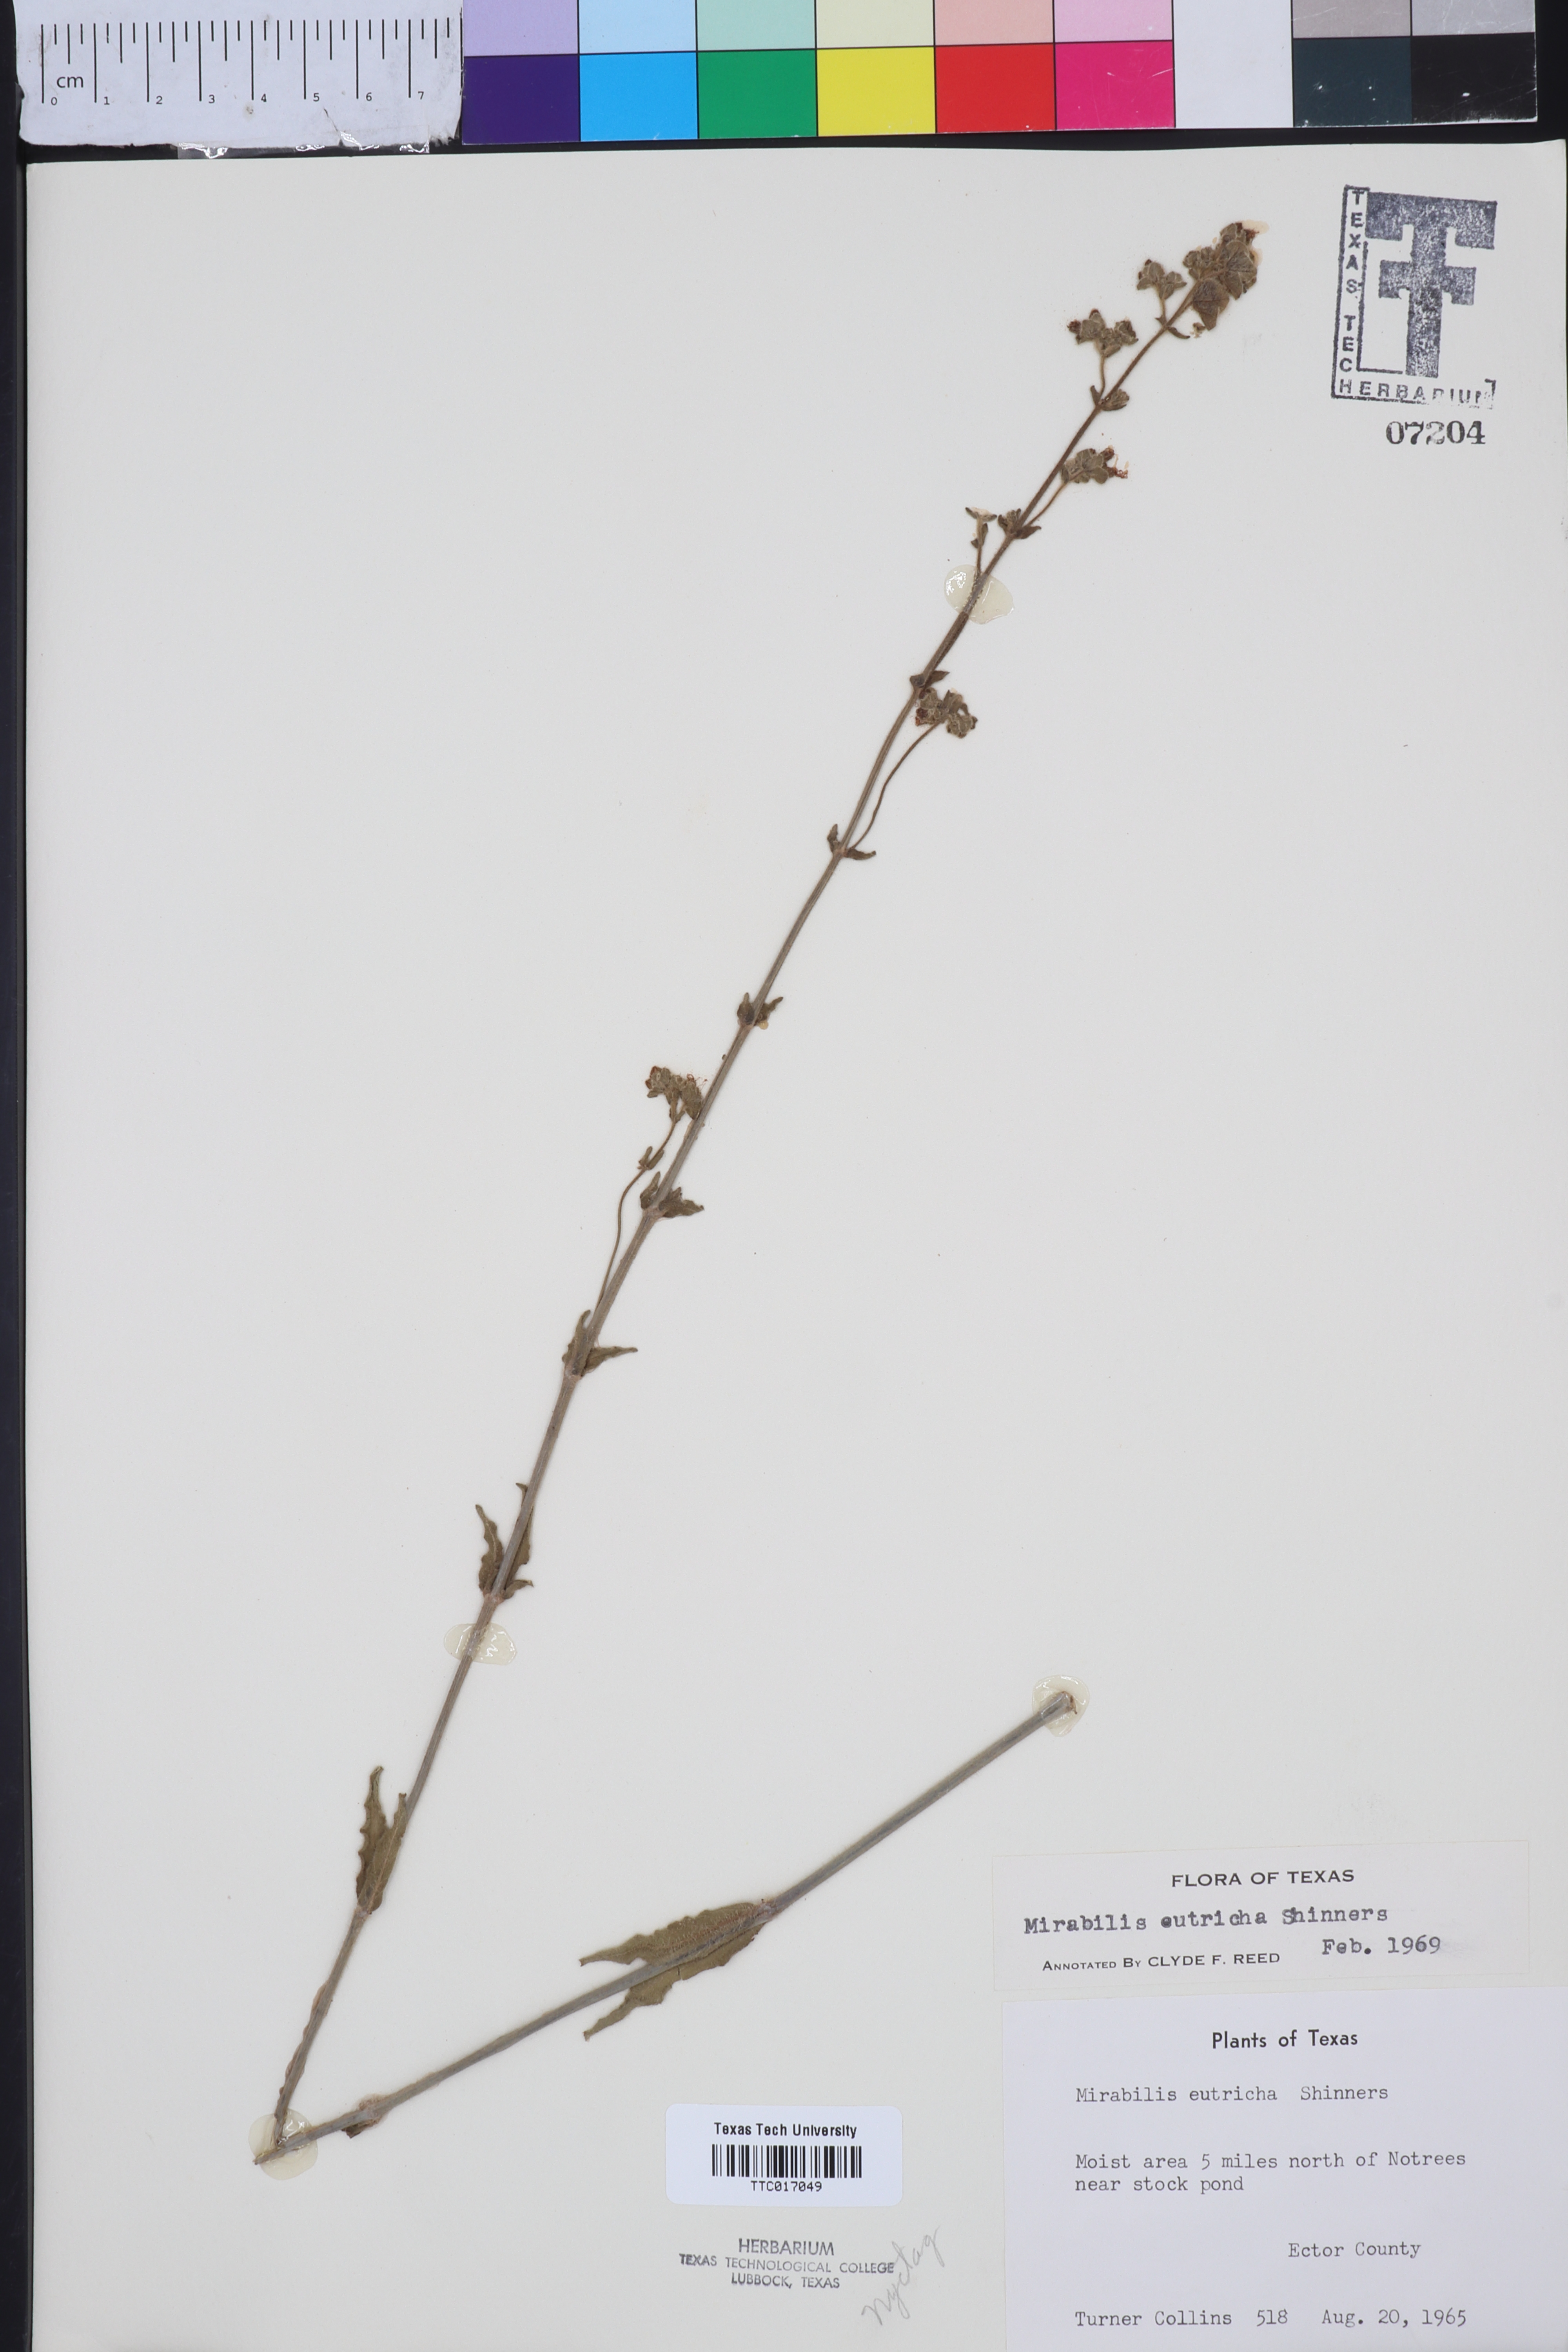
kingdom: Plantae
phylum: Tracheophyta
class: Magnoliopsida
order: Caryophyllales
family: Nyctaginaceae
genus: Mirabilis
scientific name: Mirabilis albida
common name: Hairy four-o'clock
